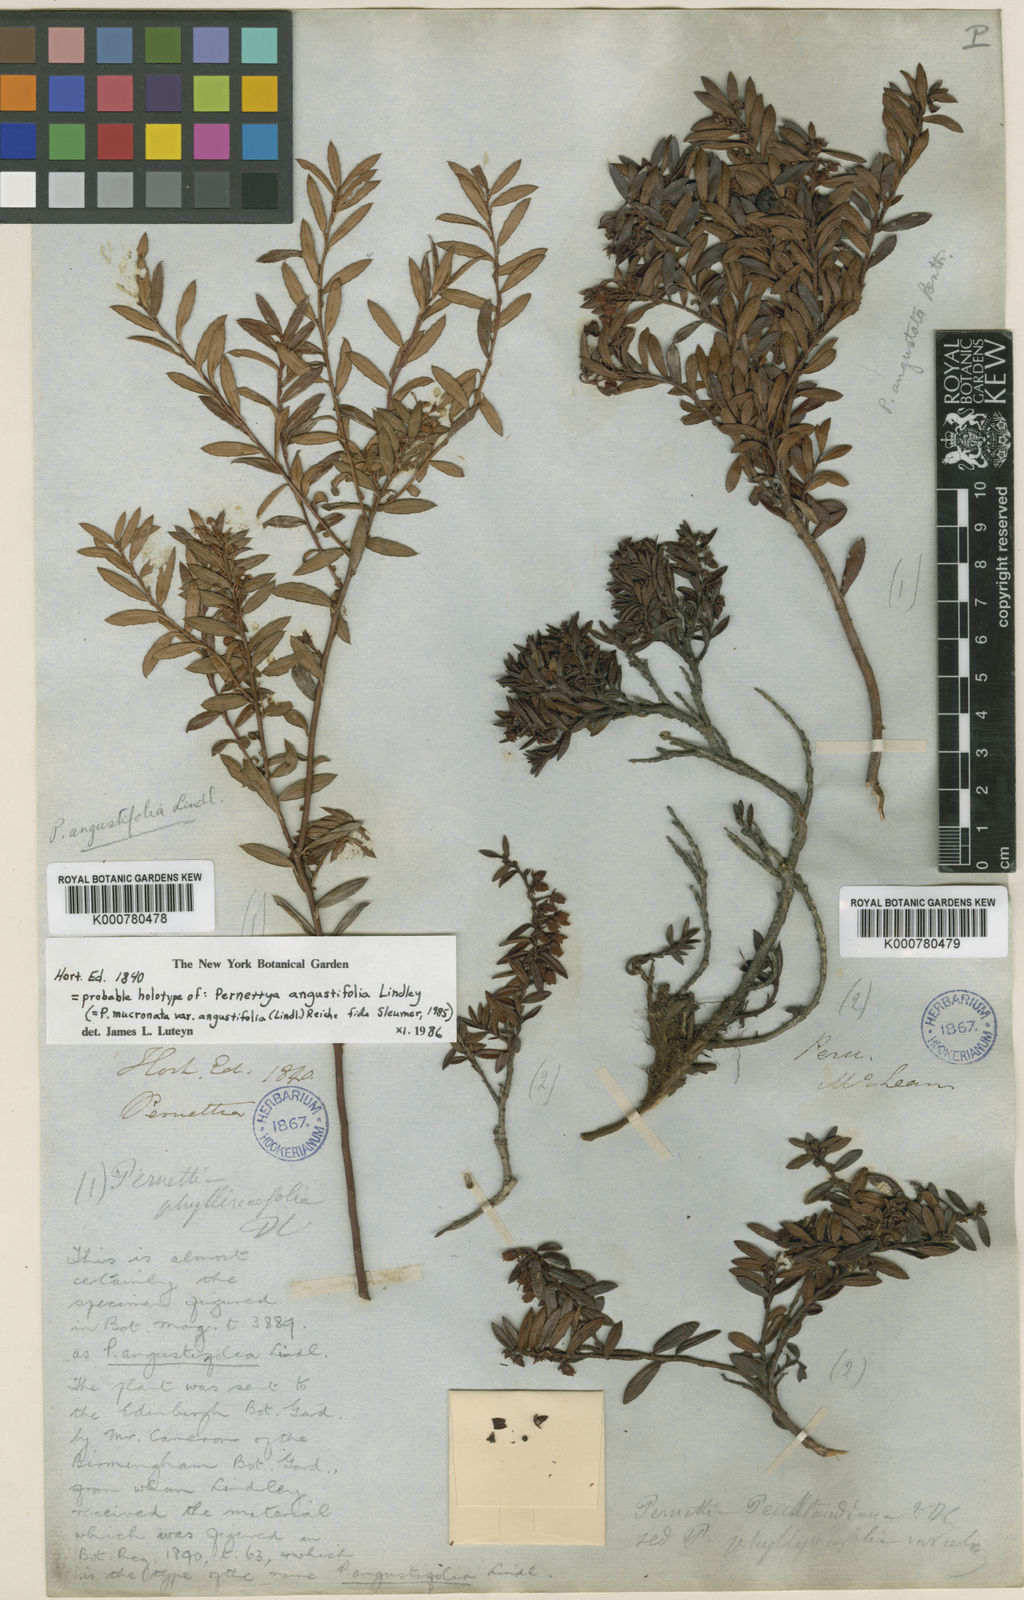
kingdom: Plantae
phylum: Tracheophyta
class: Magnoliopsida
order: Ericales
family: Ericaceae
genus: Gaultheria
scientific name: Gaultheria
